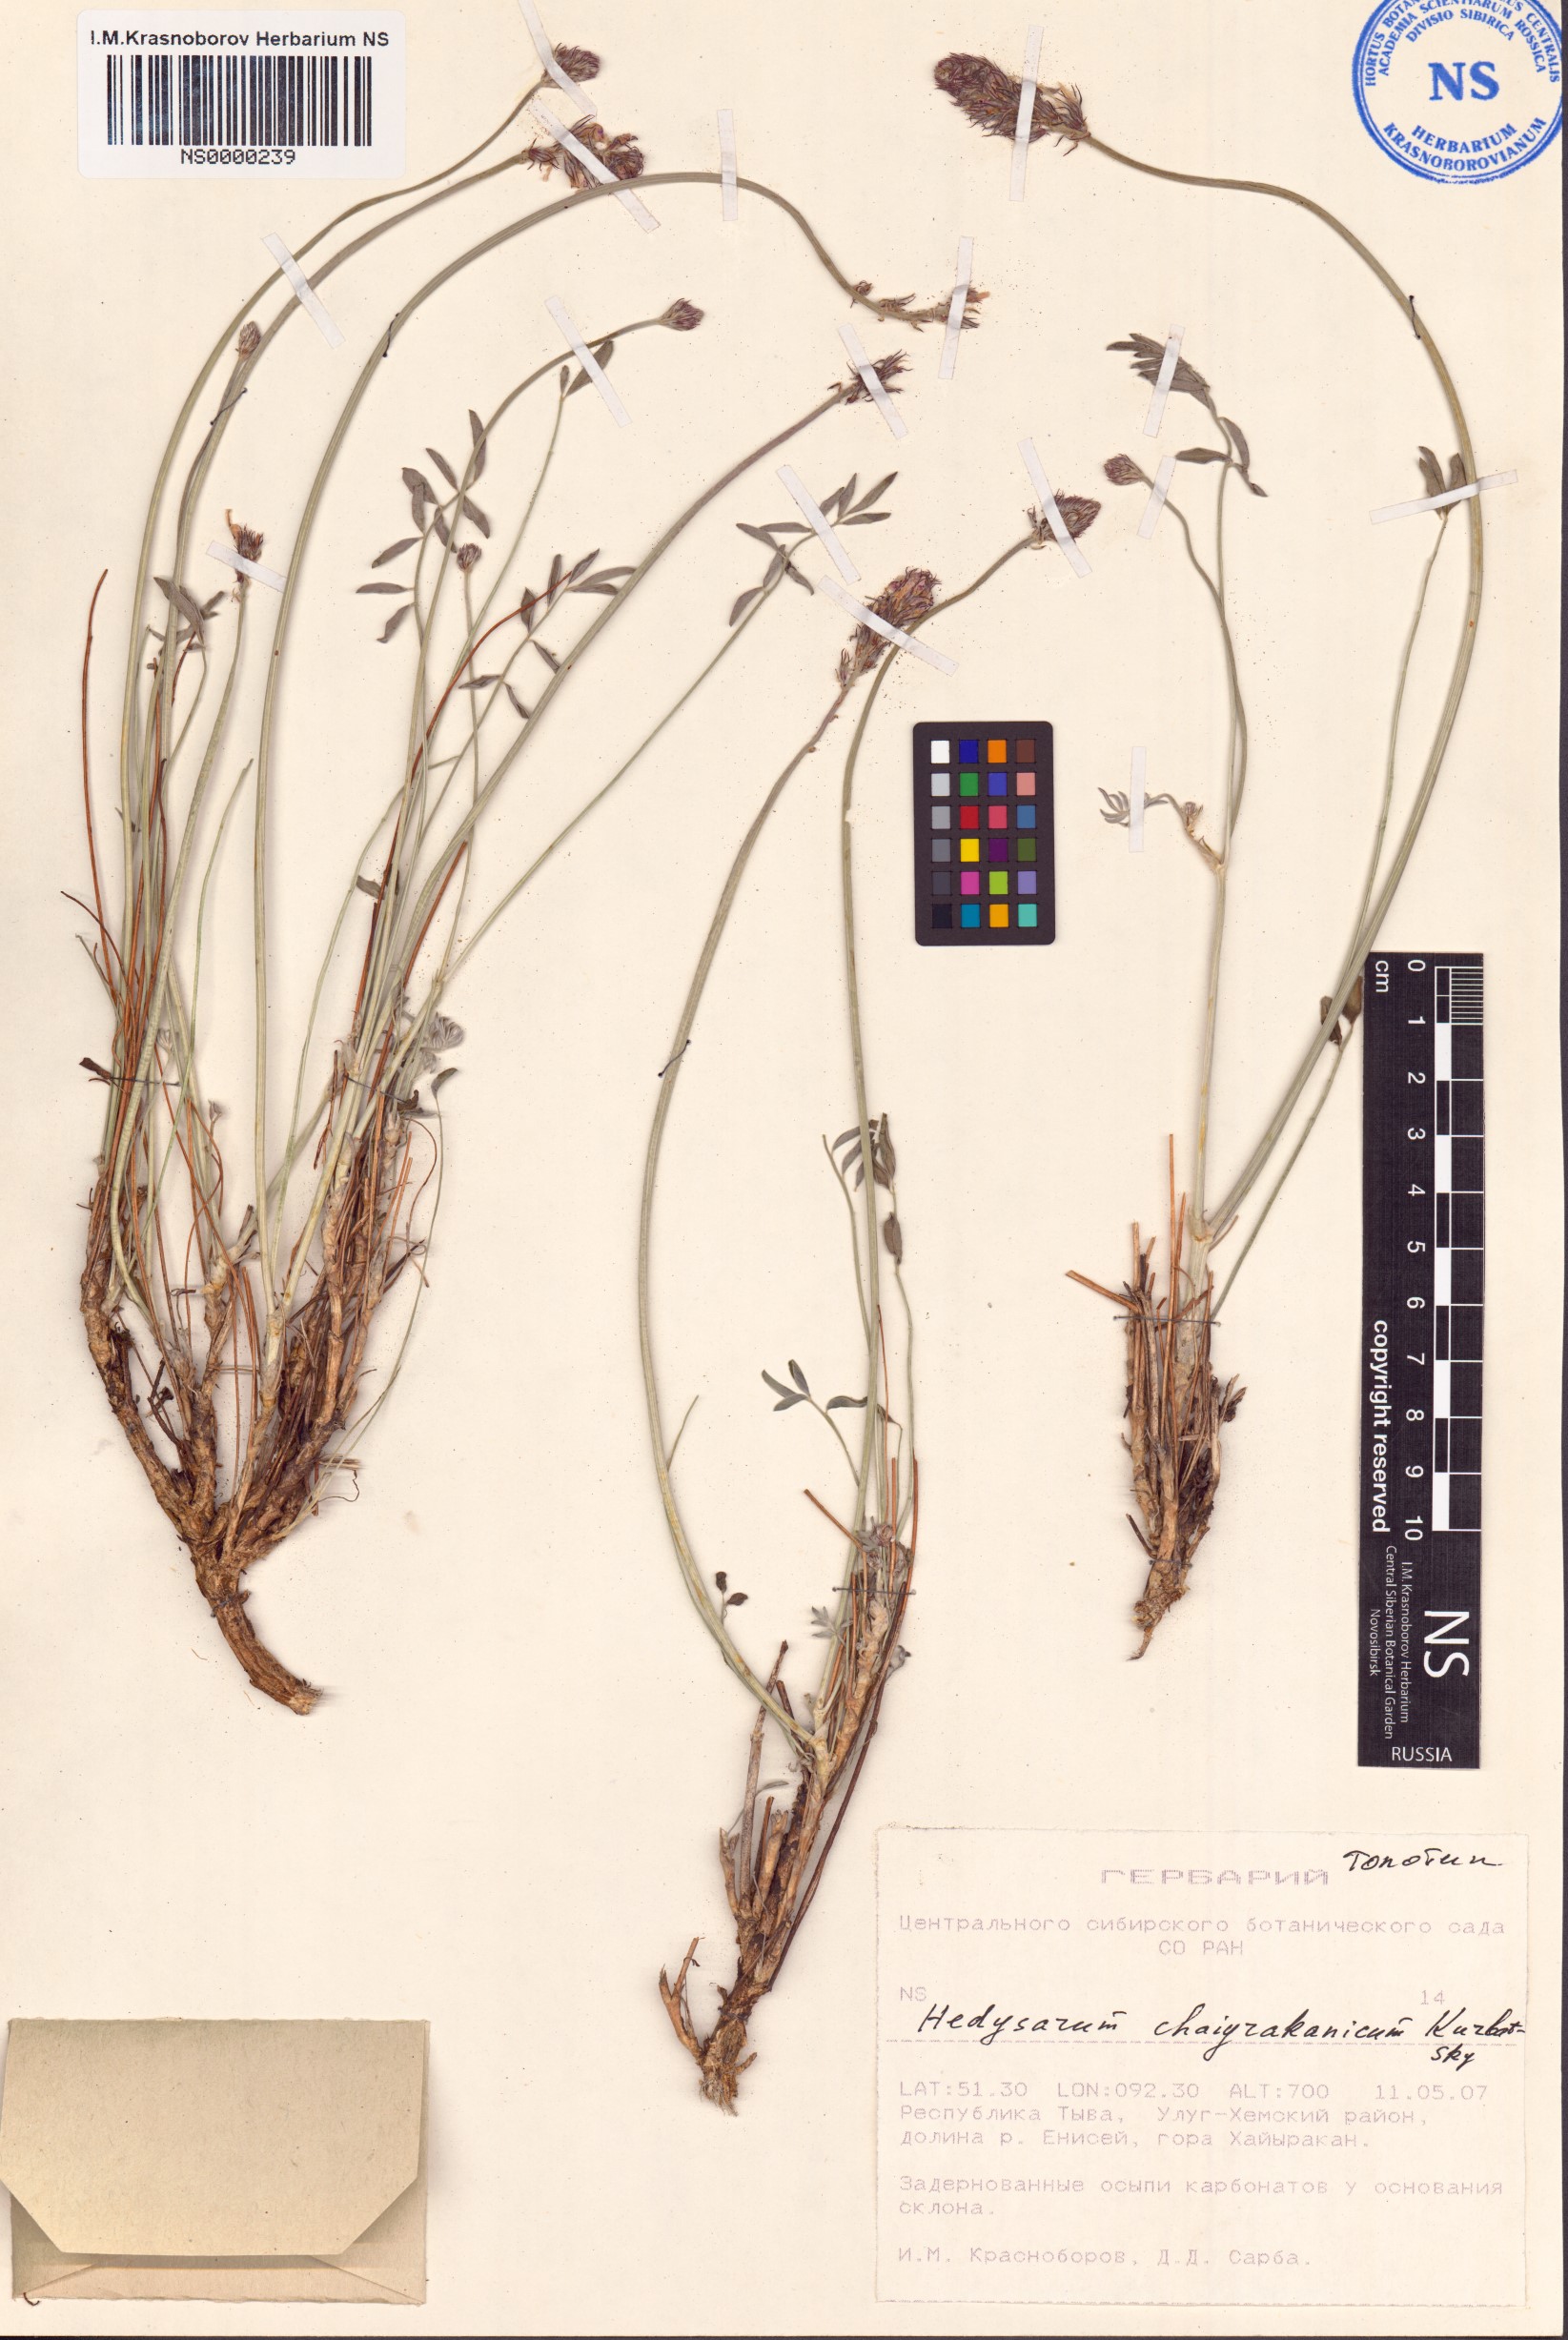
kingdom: Plantae
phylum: Tracheophyta
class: Magnoliopsida
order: Fabales
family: Fabaceae
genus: Hedysarum
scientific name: Hedysarum setigerum
